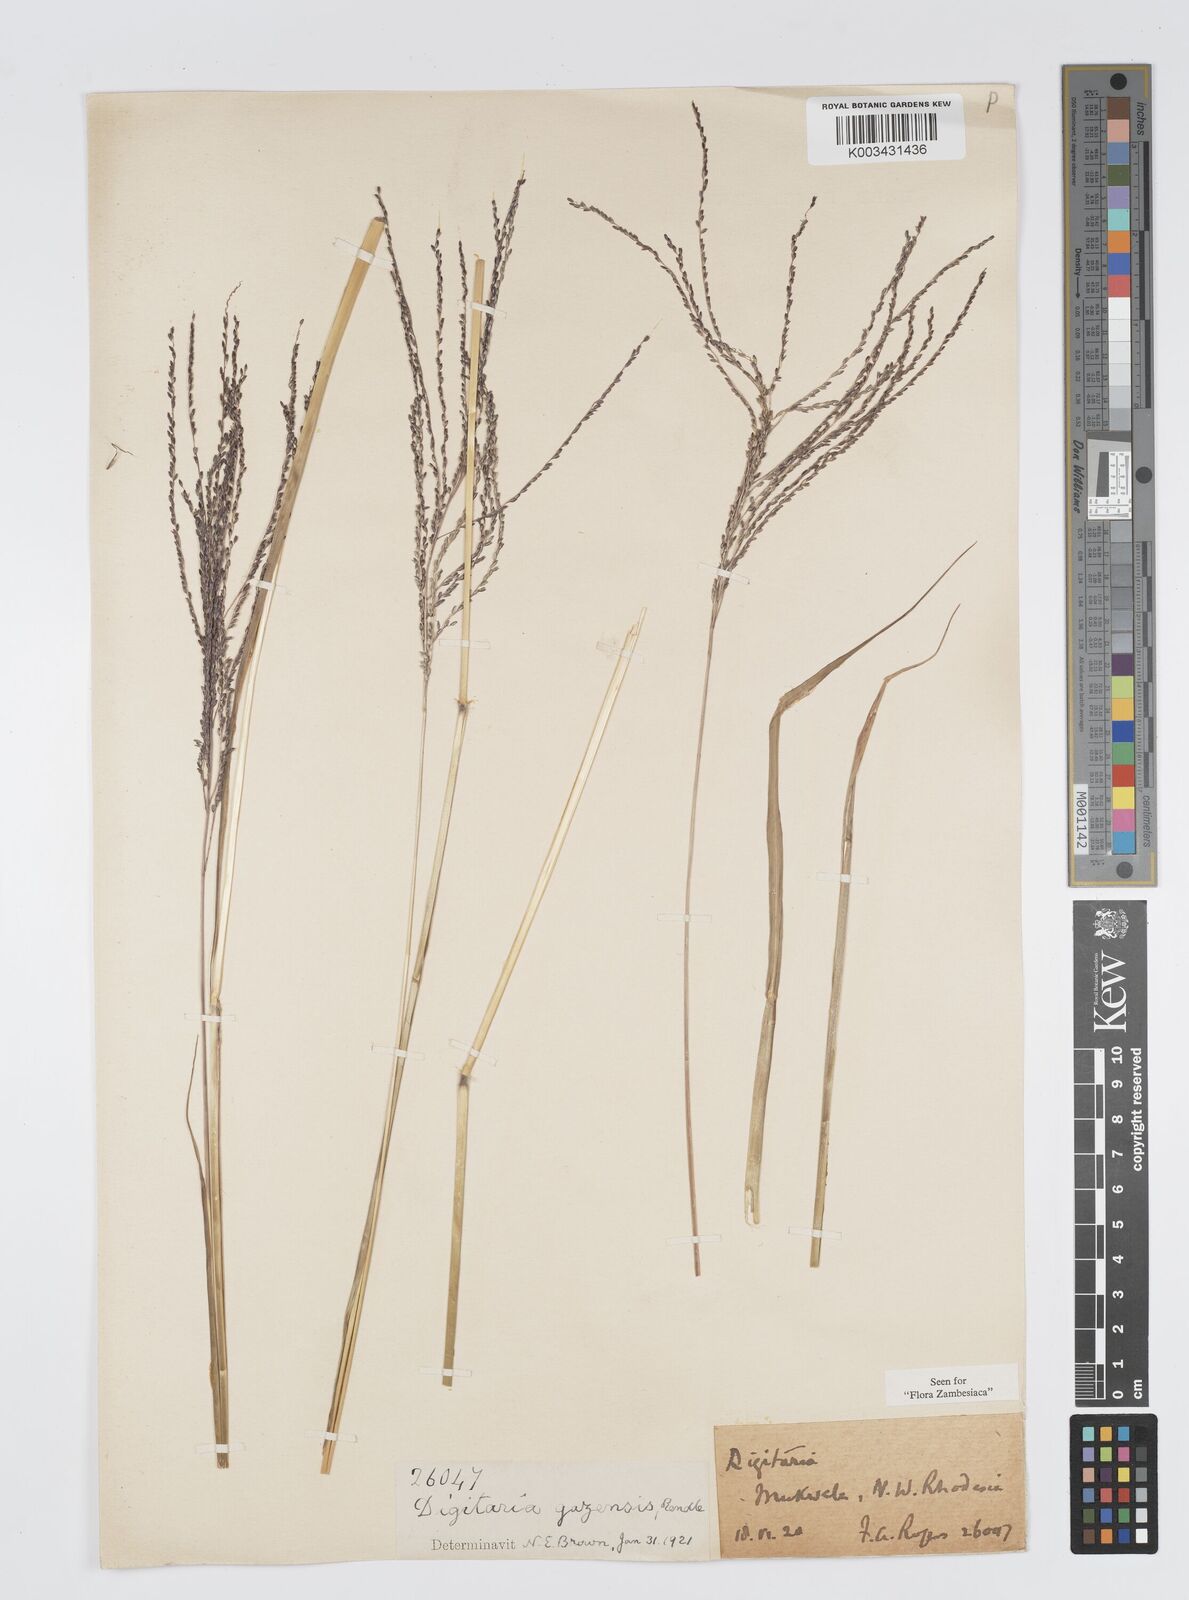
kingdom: Plantae
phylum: Tracheophyta
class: Liliopsida
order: Poales
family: Poaceae
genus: Digitaria
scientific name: Digitaria gazensis
